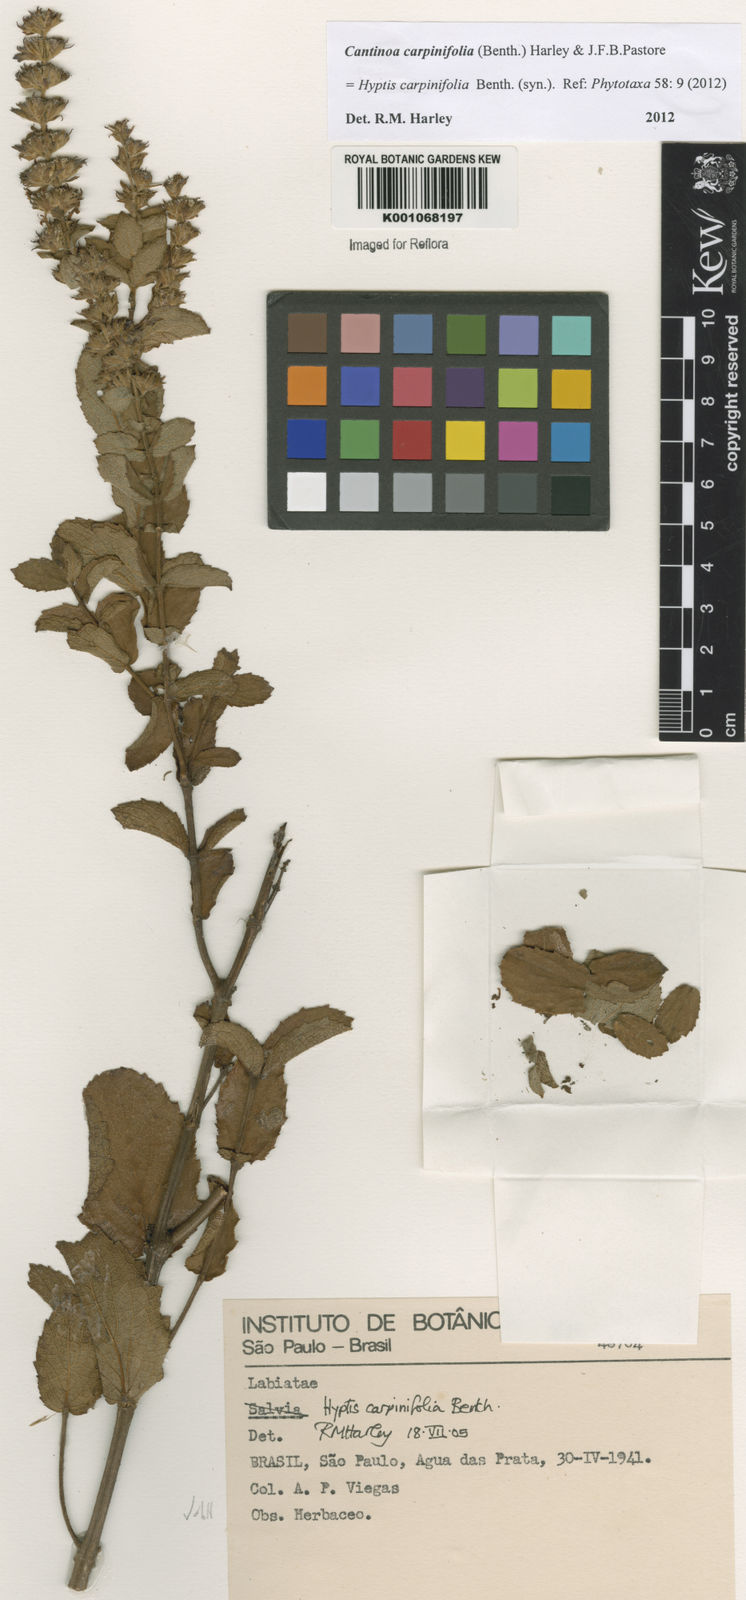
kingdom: Plantae
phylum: Tracheophyta
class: Magnoliopsida
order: Lamiales
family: Lamiaceae
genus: Cantinoa
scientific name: Cantinoa carpinifolia
